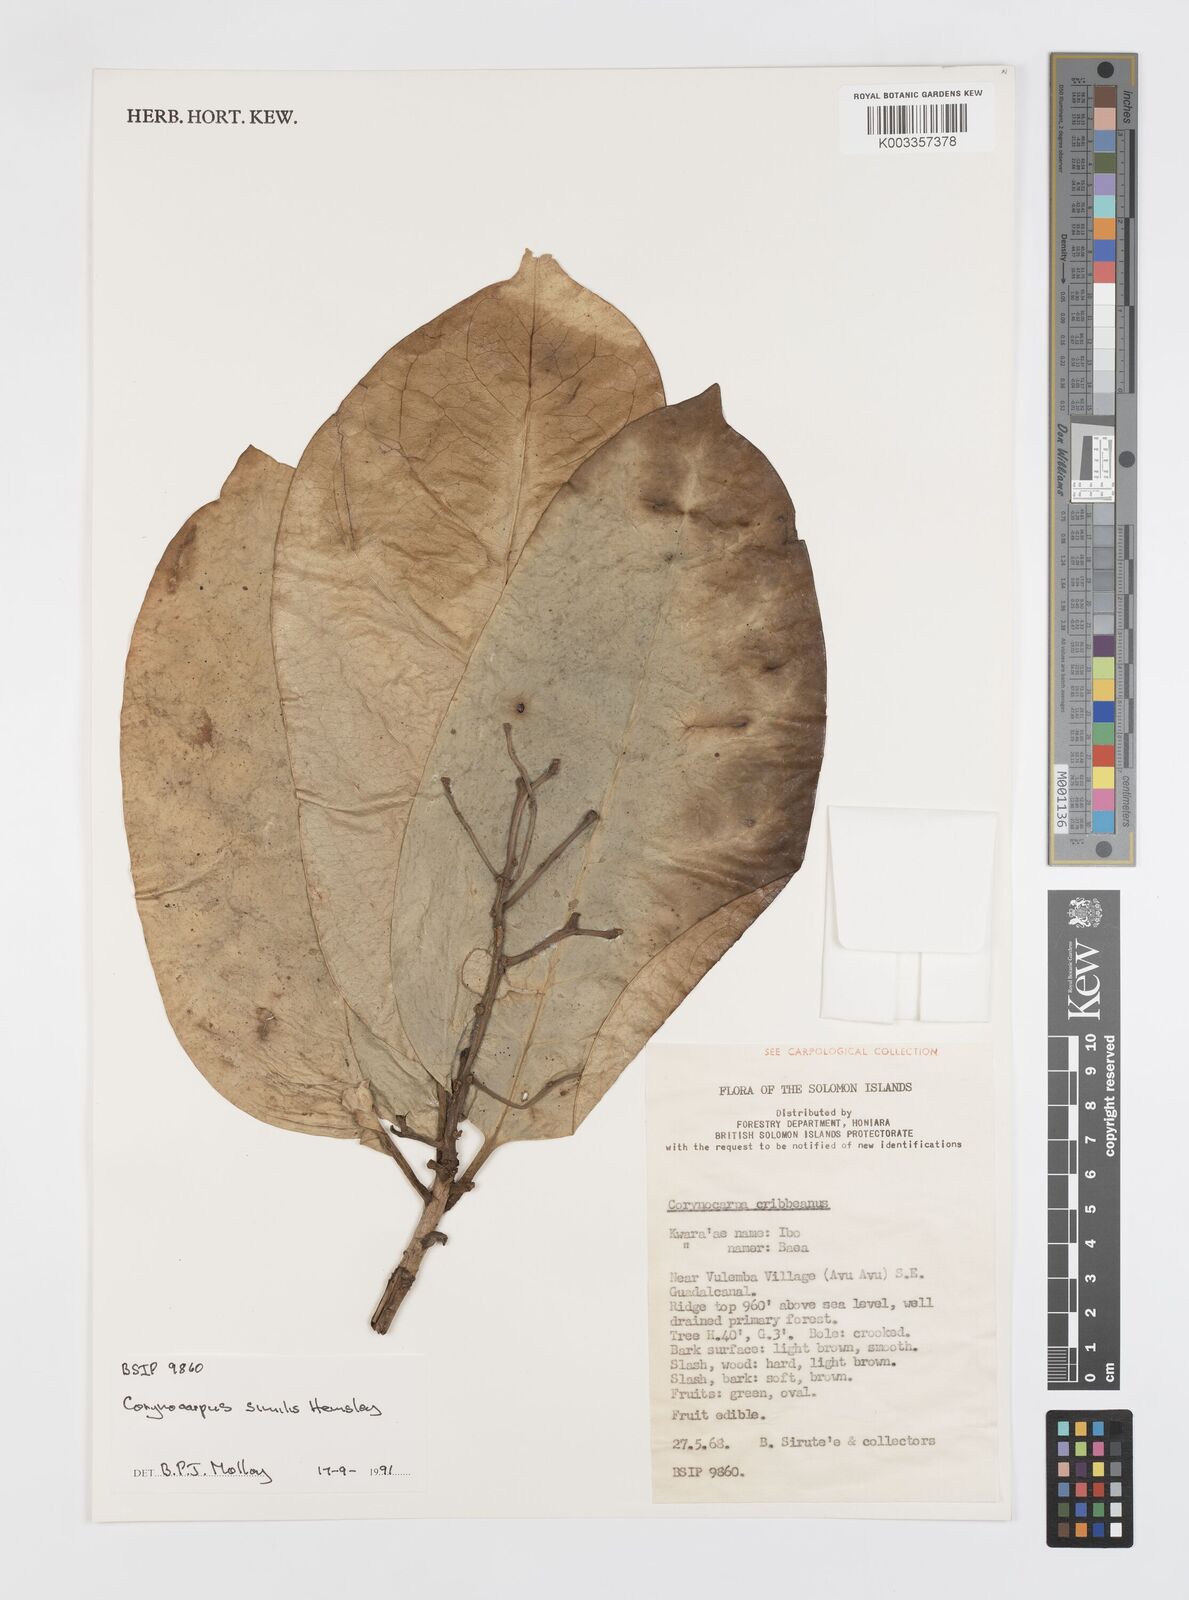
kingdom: Plantae
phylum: Tracheophyta
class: Magnoliopsida
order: Cucurbitales
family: Corynocarpaceae
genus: Corynocarpus
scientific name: Corynocarpus similis
